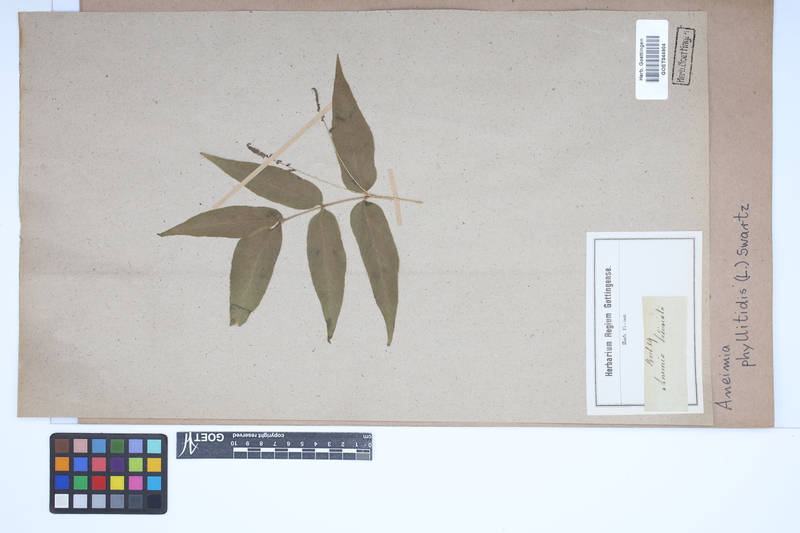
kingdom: Plantae
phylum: Tracheophyta
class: Polypodiopsida
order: Schizaeales
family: Anemiaceae
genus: Anemia
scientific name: Anemia phyllitidis
